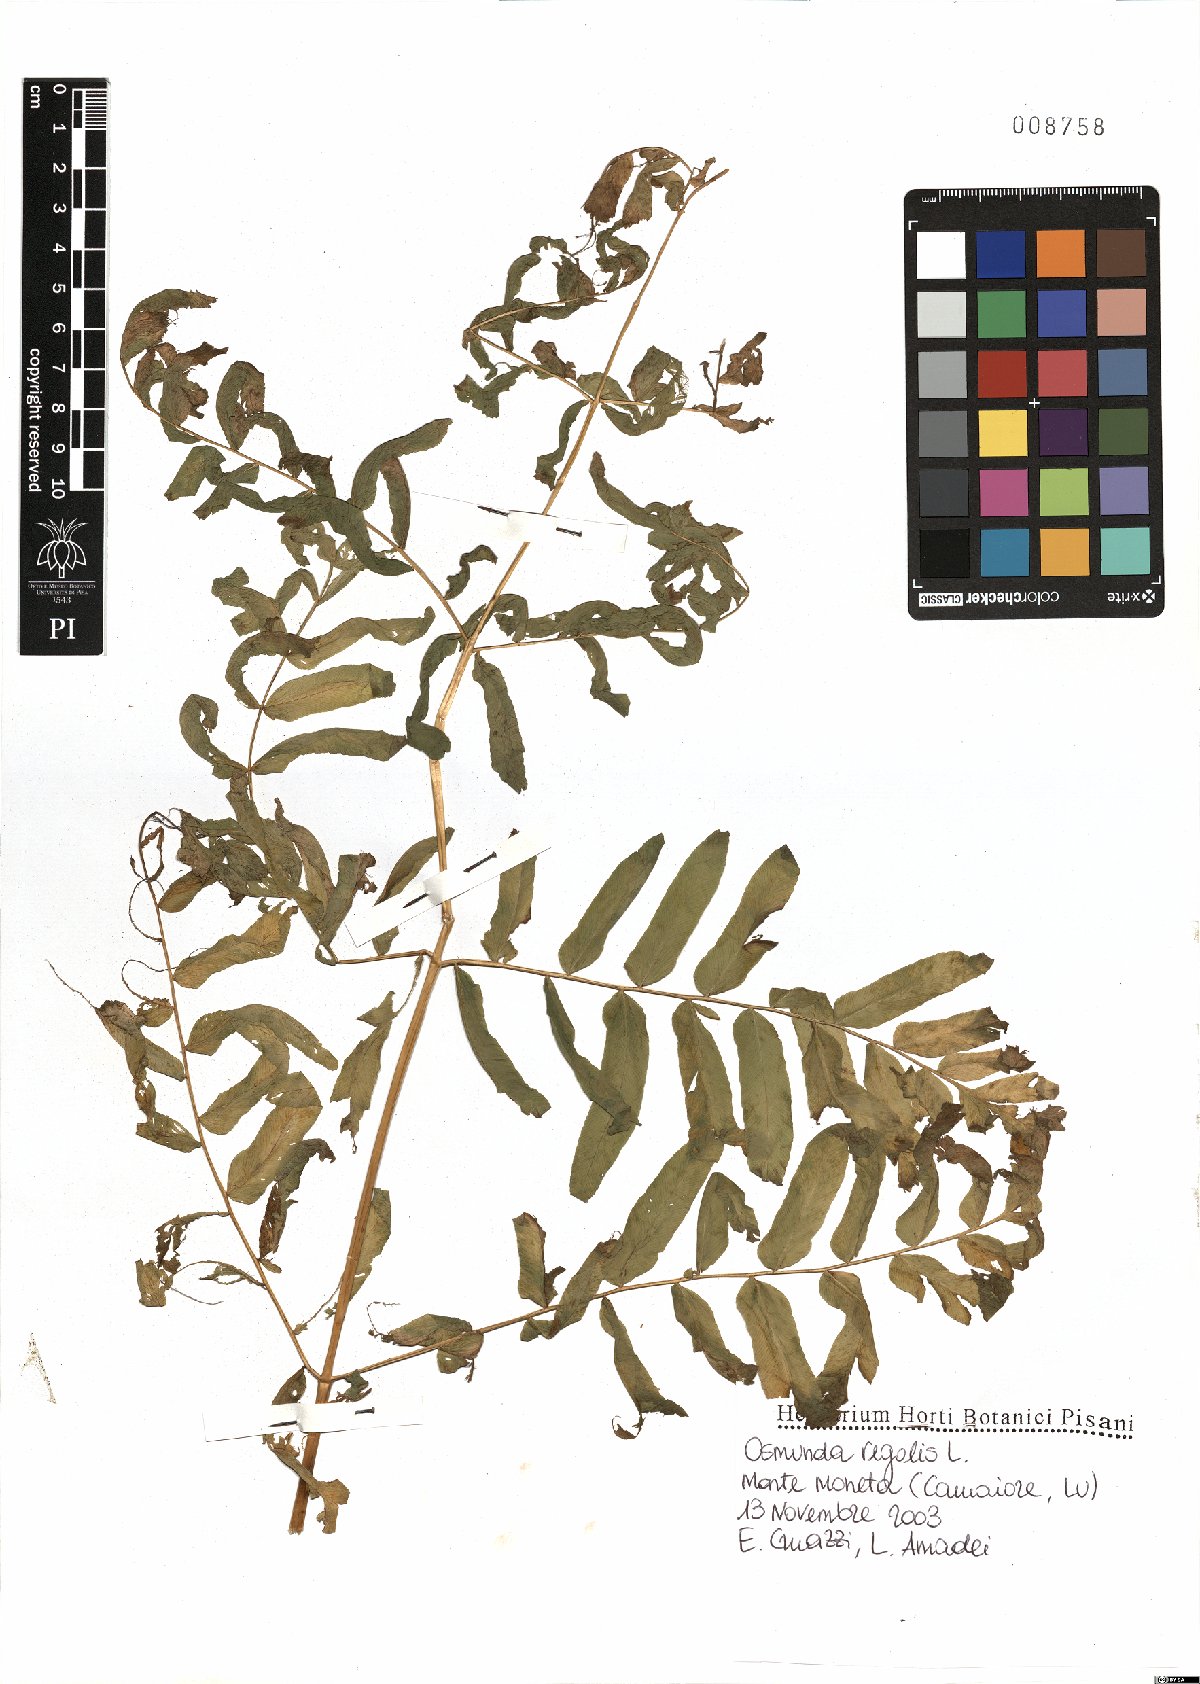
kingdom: Plantae
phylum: Tracheophyta
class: Polypodiopsida
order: Osmundales
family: Osmundaceae
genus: Osmunda
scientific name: Osmunda regalis
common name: Royal fern
